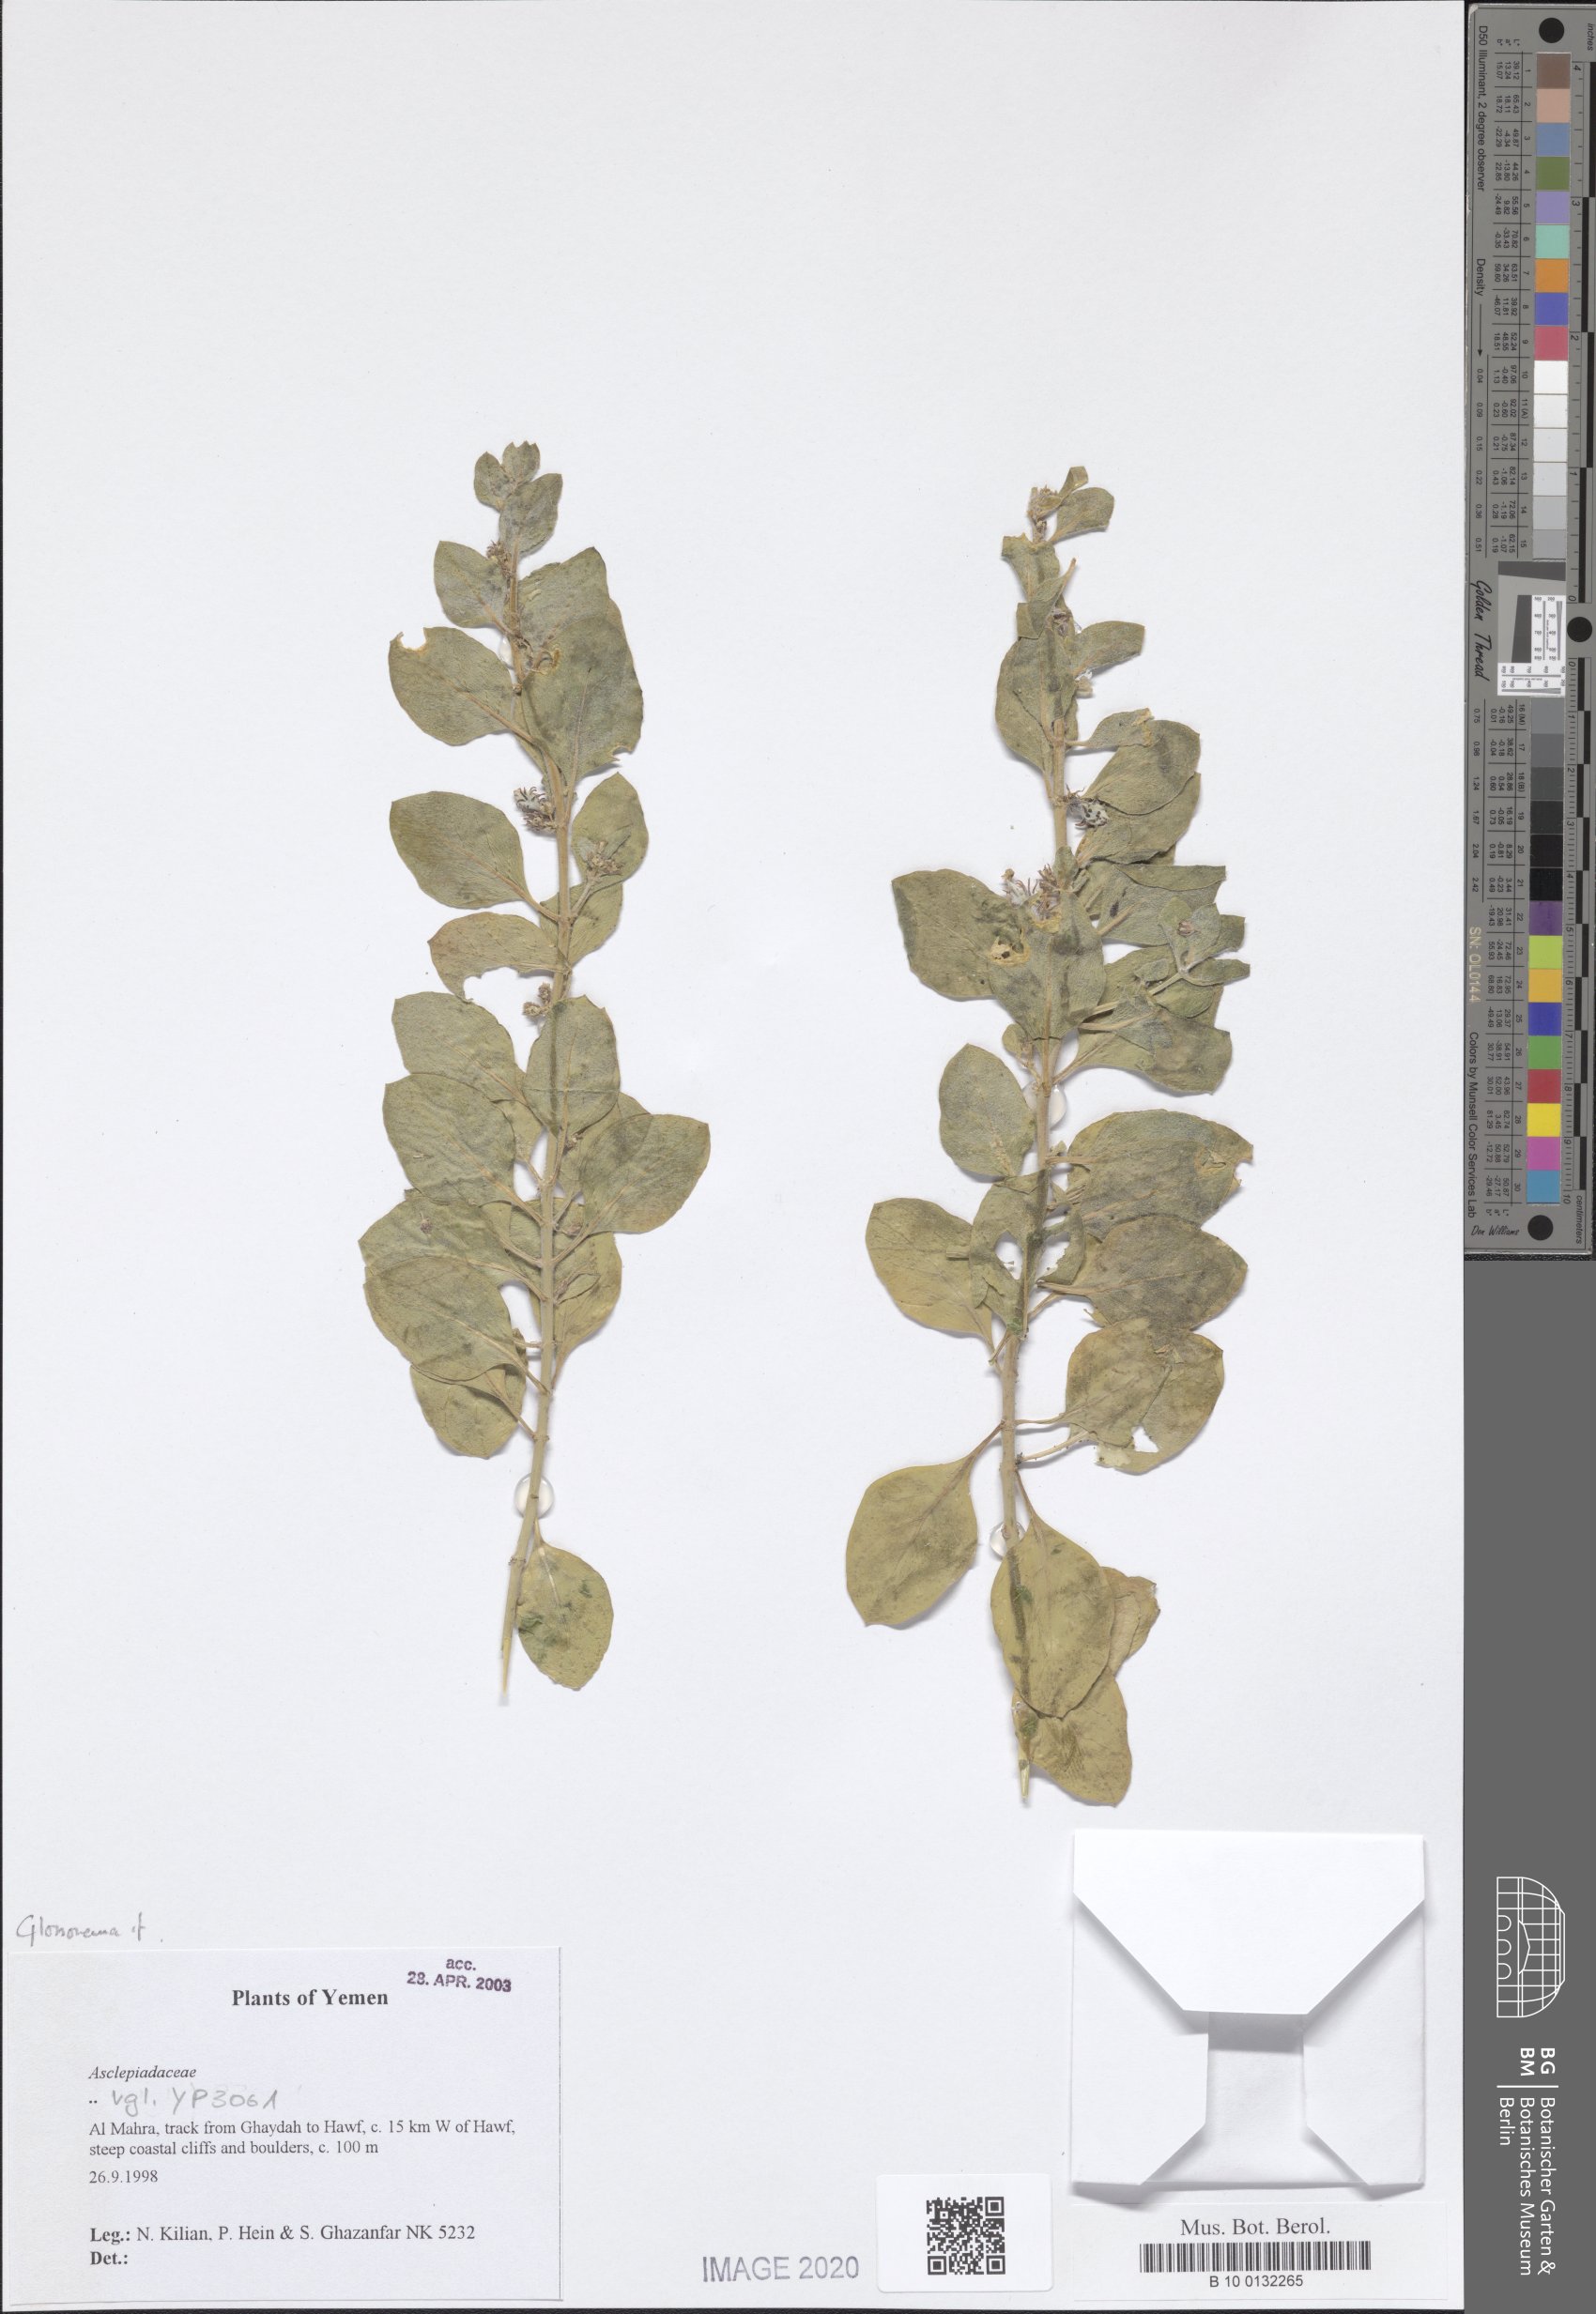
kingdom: Plantae
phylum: Tracheophyta
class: Magnoliopsida
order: Gentianales
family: Apocynaceae
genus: Cynanchum
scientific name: Cynanchum varians
